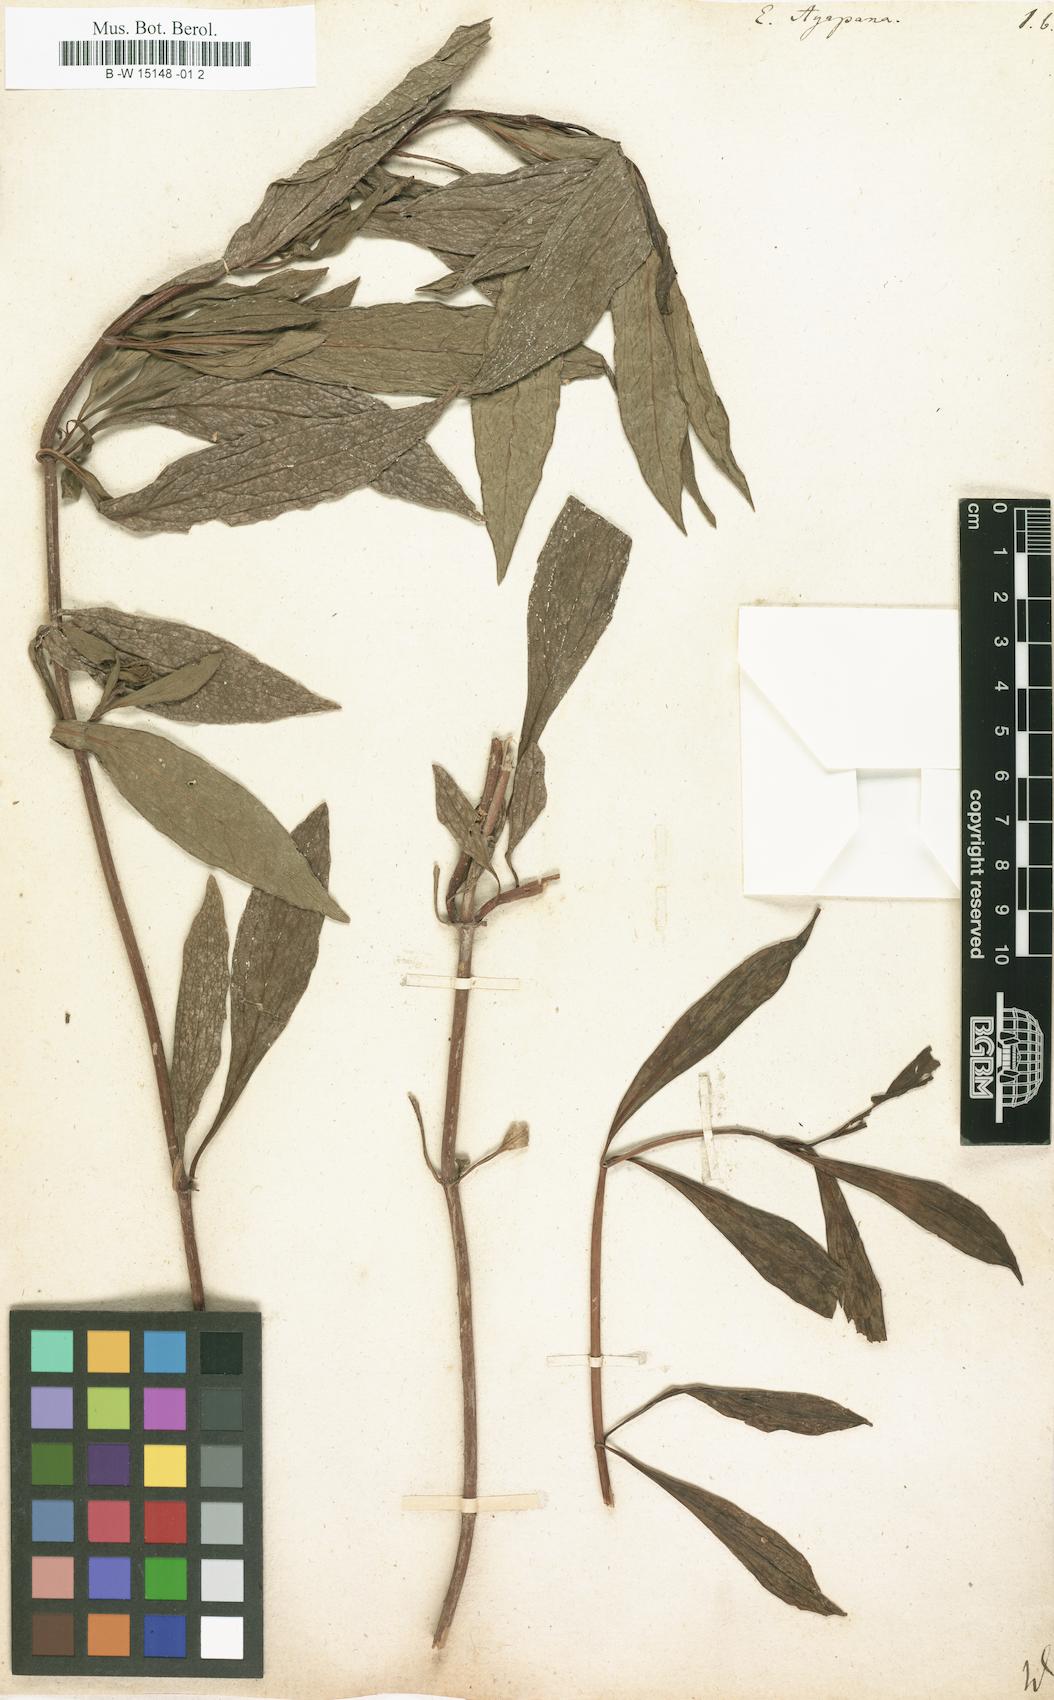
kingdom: Plantae
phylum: Tracheophyta
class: Magnoliopsida
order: Asterales
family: Asteraceae
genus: Ayapana
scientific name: Ayapana triplinervis
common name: Triplinerved eupatorium
